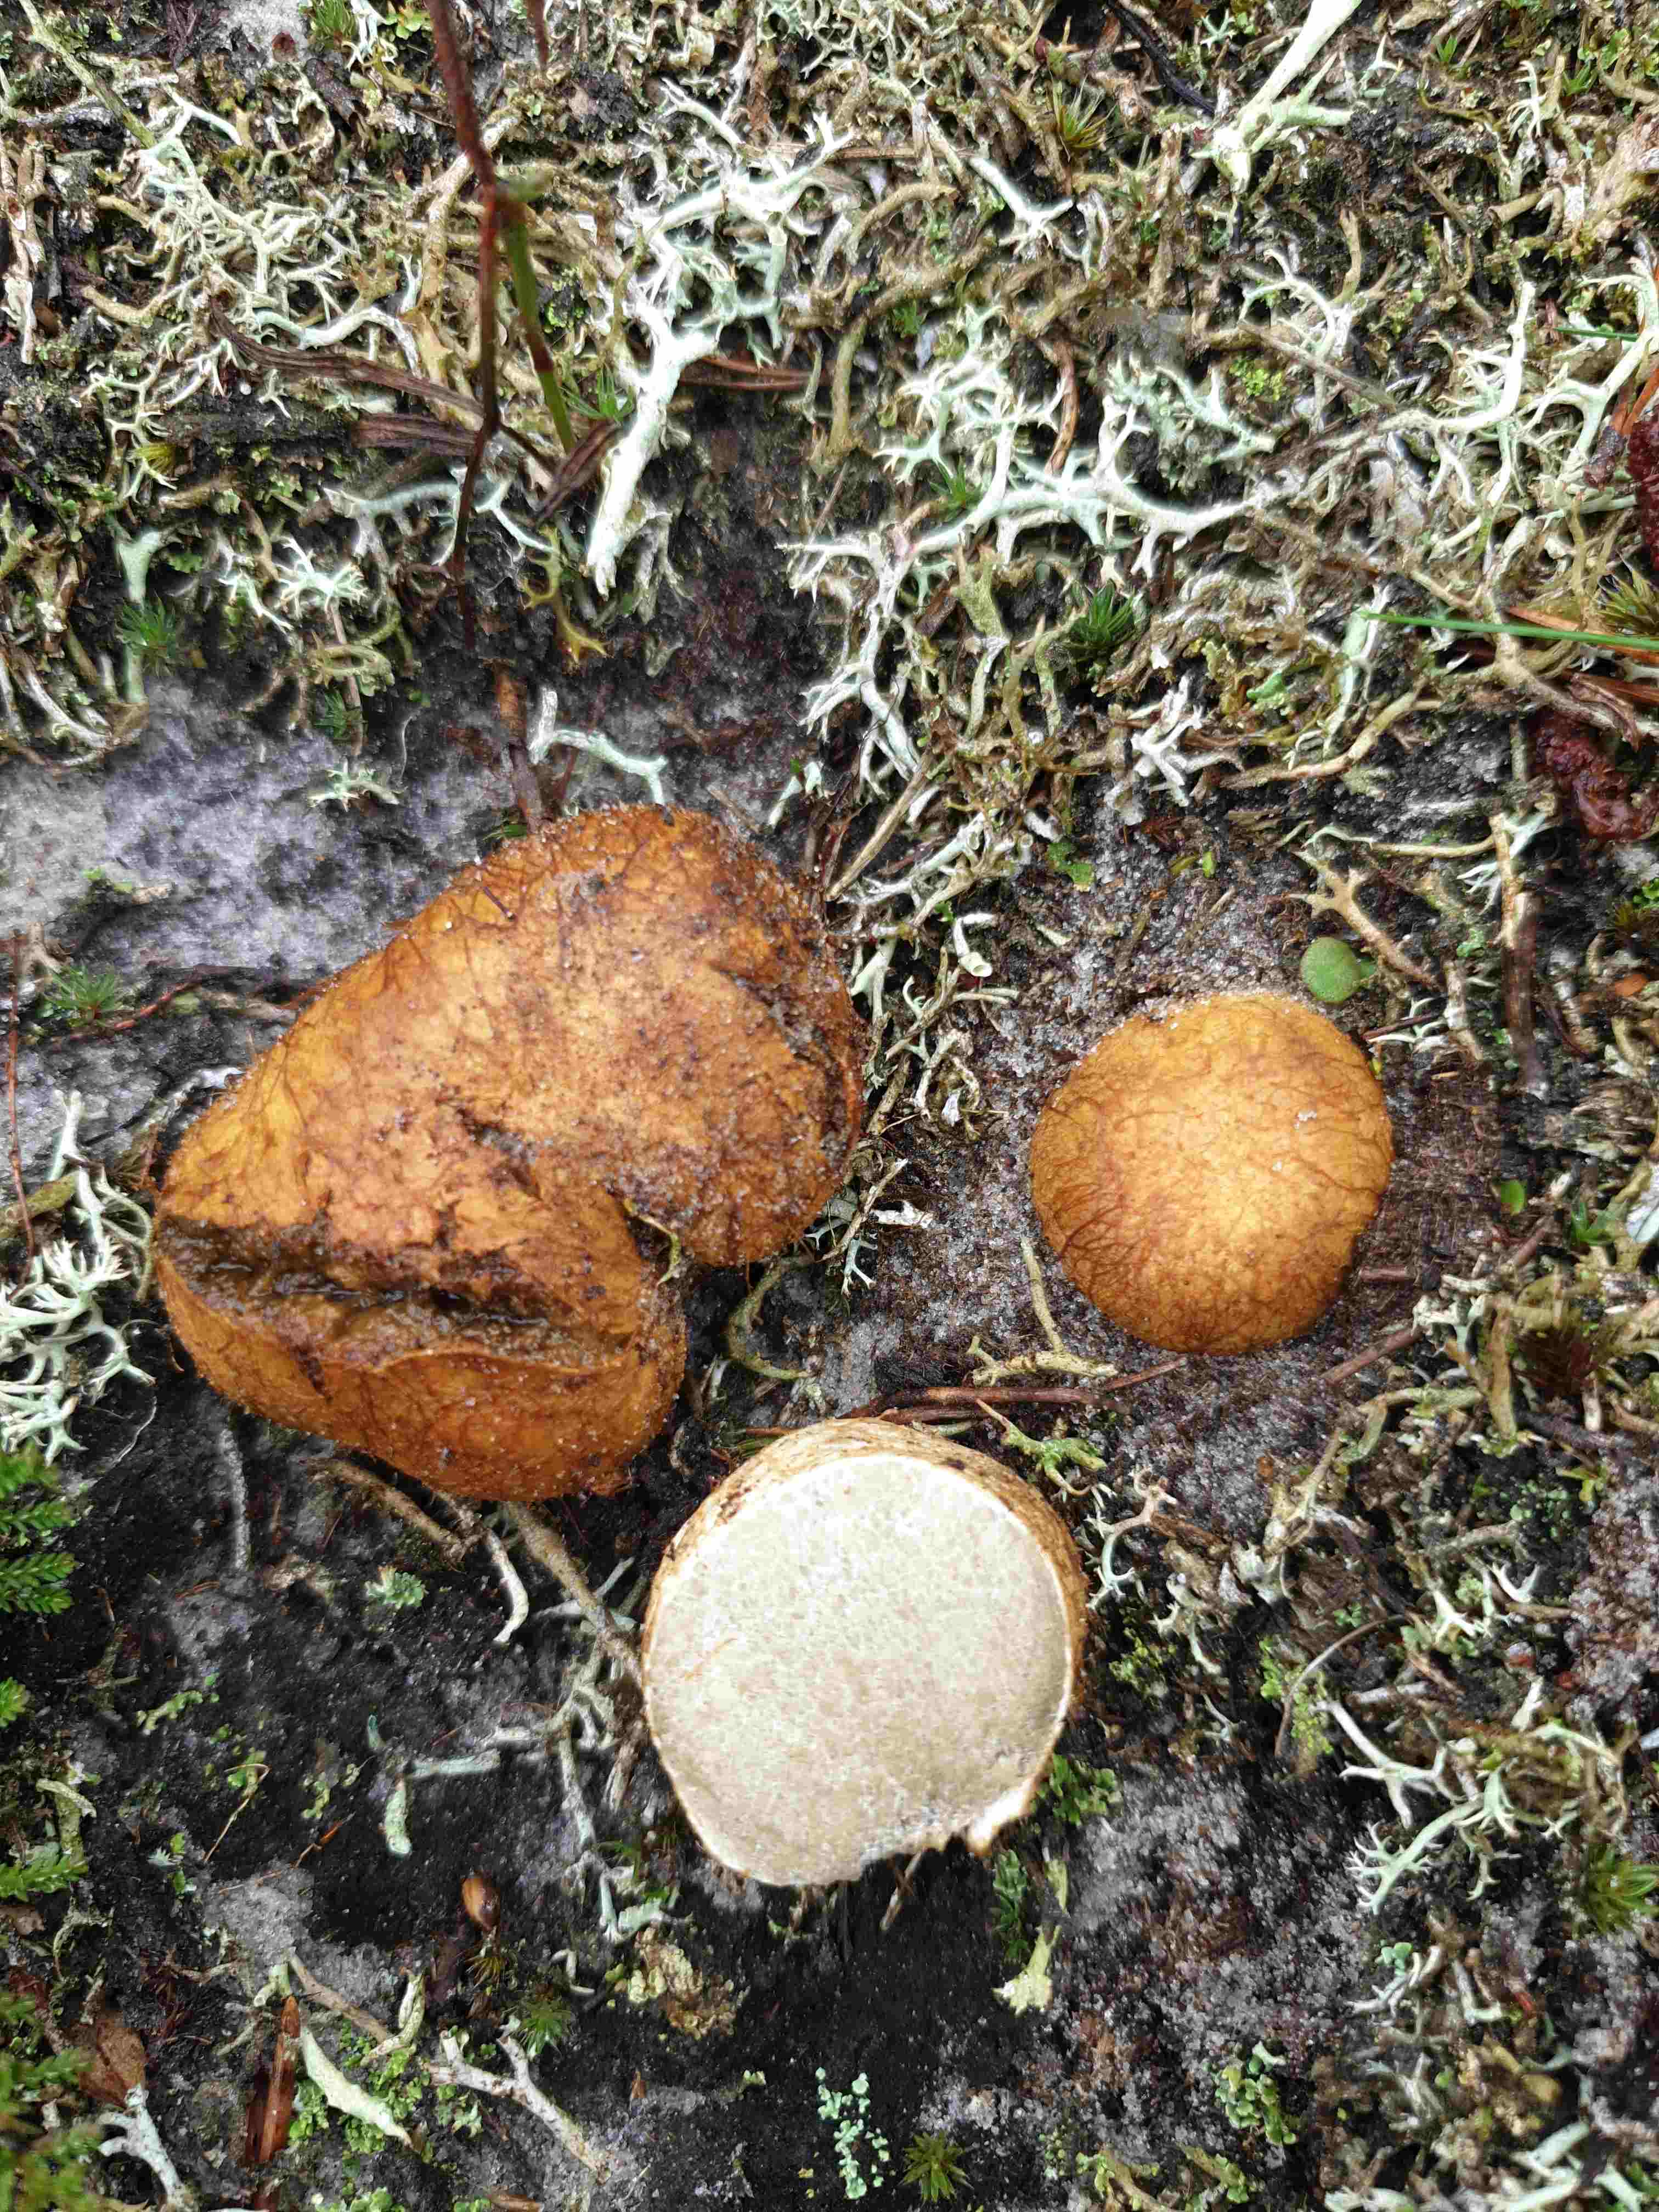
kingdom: Fungi
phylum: Basidiomycota
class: Agaricomycetes
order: Boletales
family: Rhizopogonaceae
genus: Rhizopogon
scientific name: Rhizopogon obtextus
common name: gul skægtrøffel
